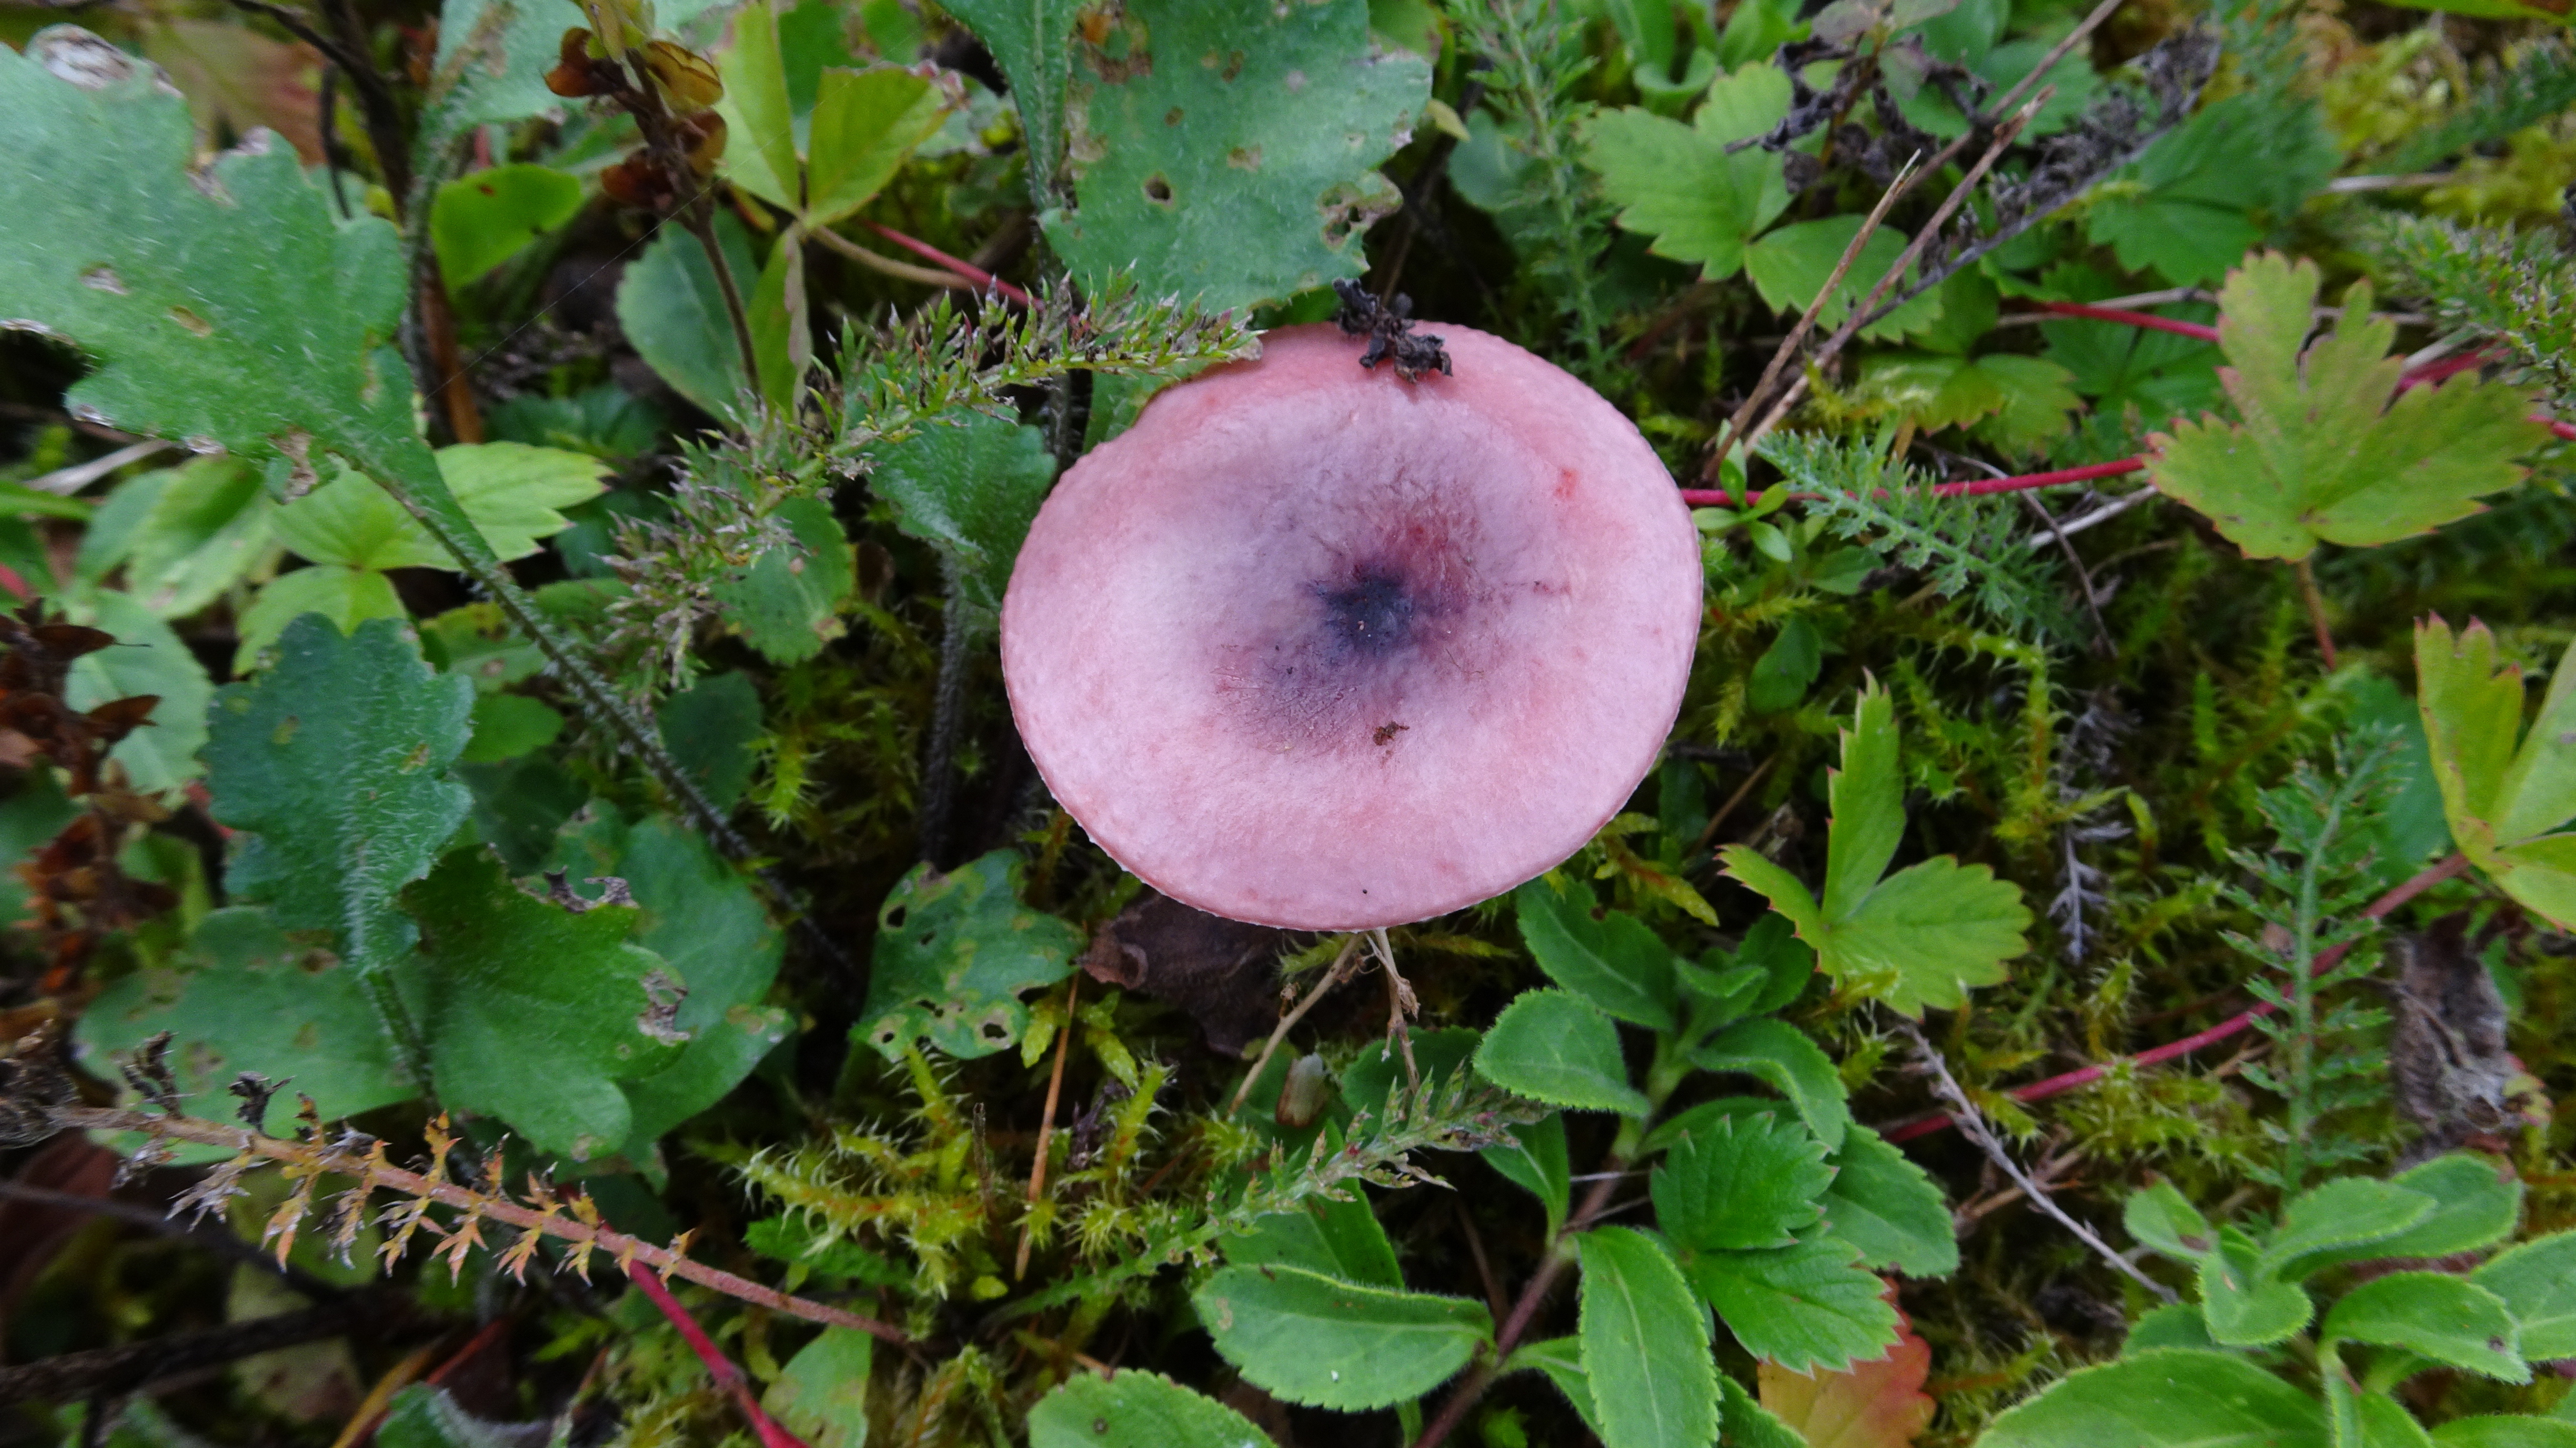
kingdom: Fungi
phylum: Basidiomycota
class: Agaricomycetes
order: Russulales
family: Russulaceae
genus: Russula
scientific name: Russula
